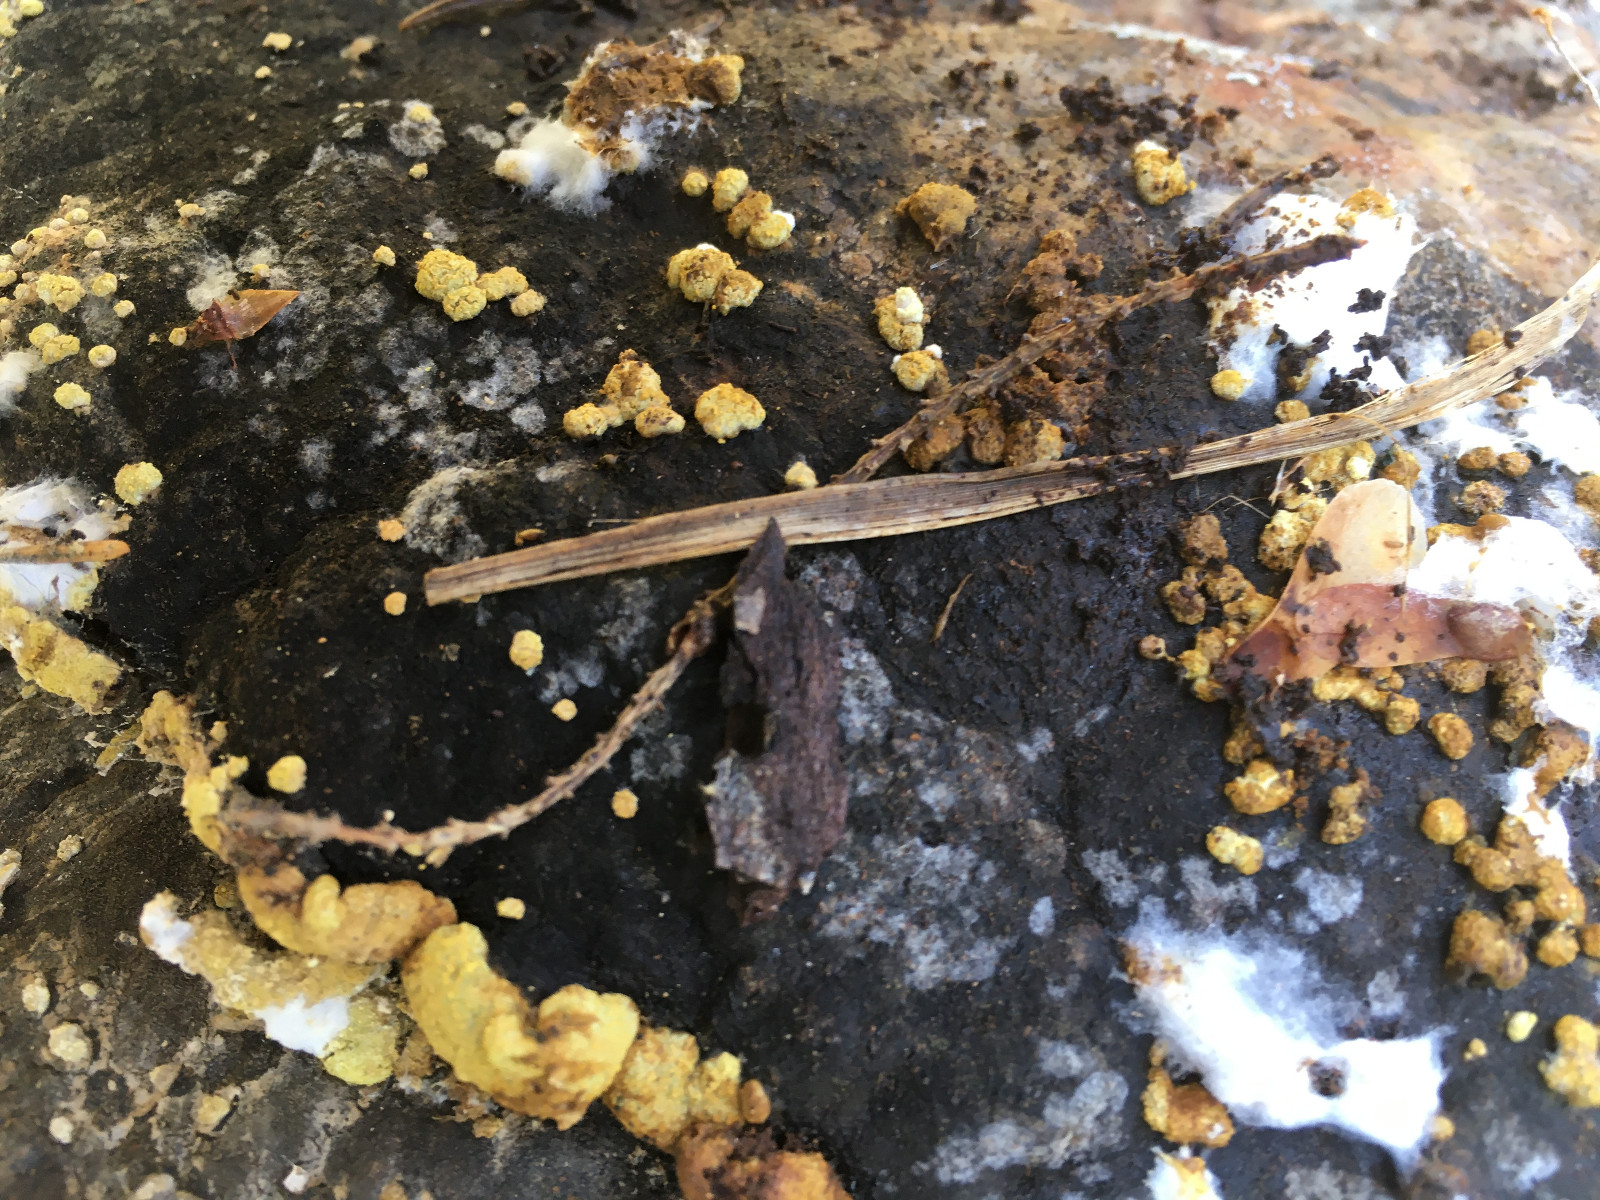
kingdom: Fungi
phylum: Ascomycota
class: Sordariomycetes
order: Hypocreales
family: Hypocreaceae
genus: Trichoderma
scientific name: Trichoderma pulvinatum
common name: snyltende kødkerne
